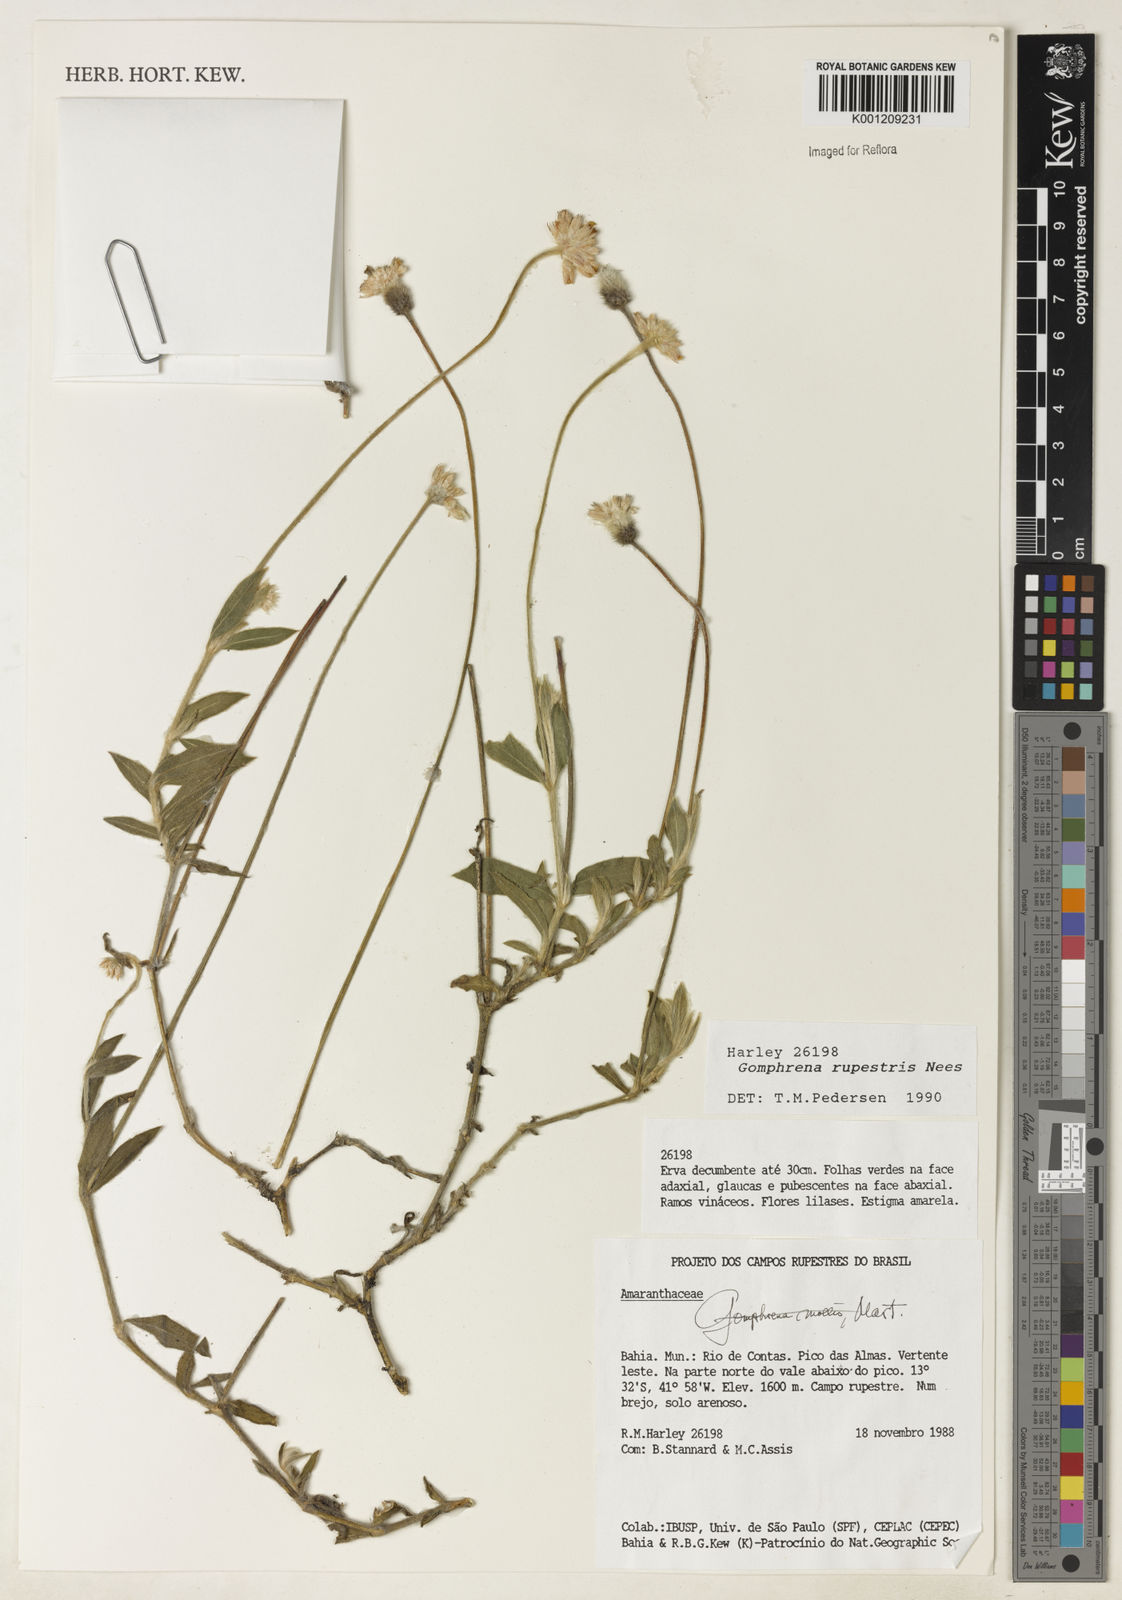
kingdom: Plantae
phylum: Tracheophyta
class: Magnoliopsida
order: Caryophyllales
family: Amaranthaceae
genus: Gomphrena
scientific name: Gomphrena rupestris
